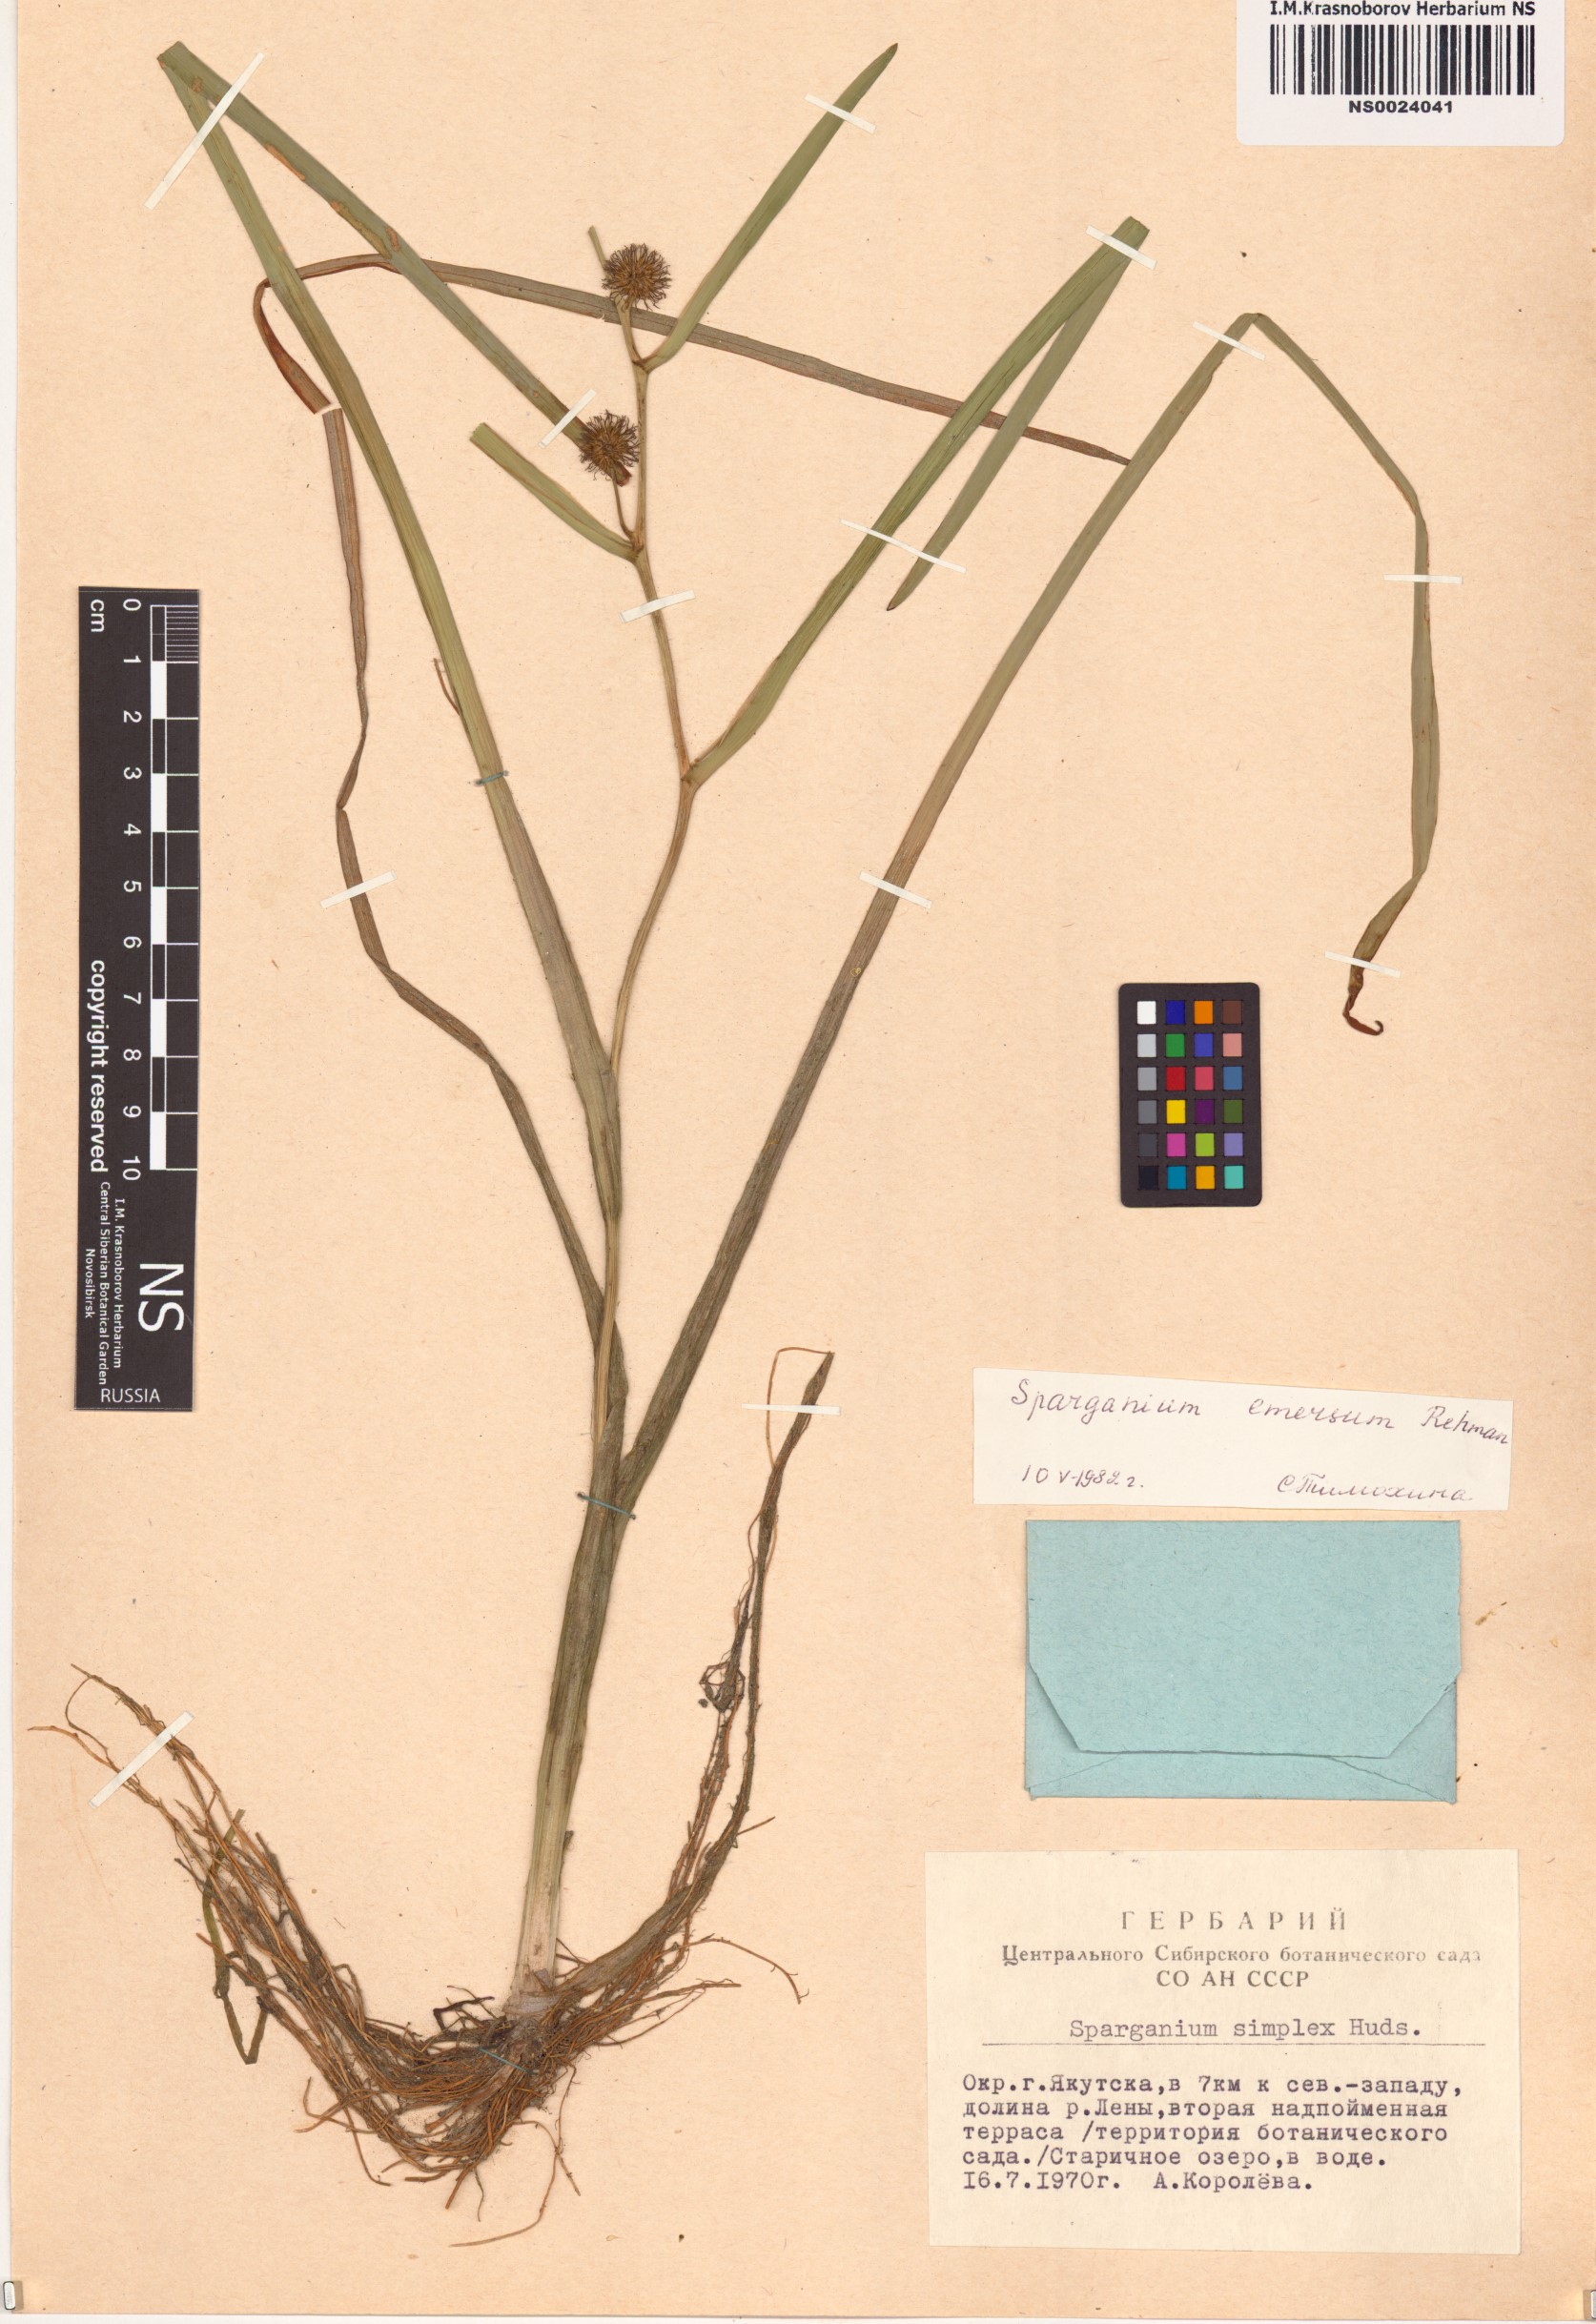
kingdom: Plantae
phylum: Tracheophyta
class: Liliopsida
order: Poales
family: Typhaceae
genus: Sparganium
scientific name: Sparganium emersum
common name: Unbranched bur-reed
